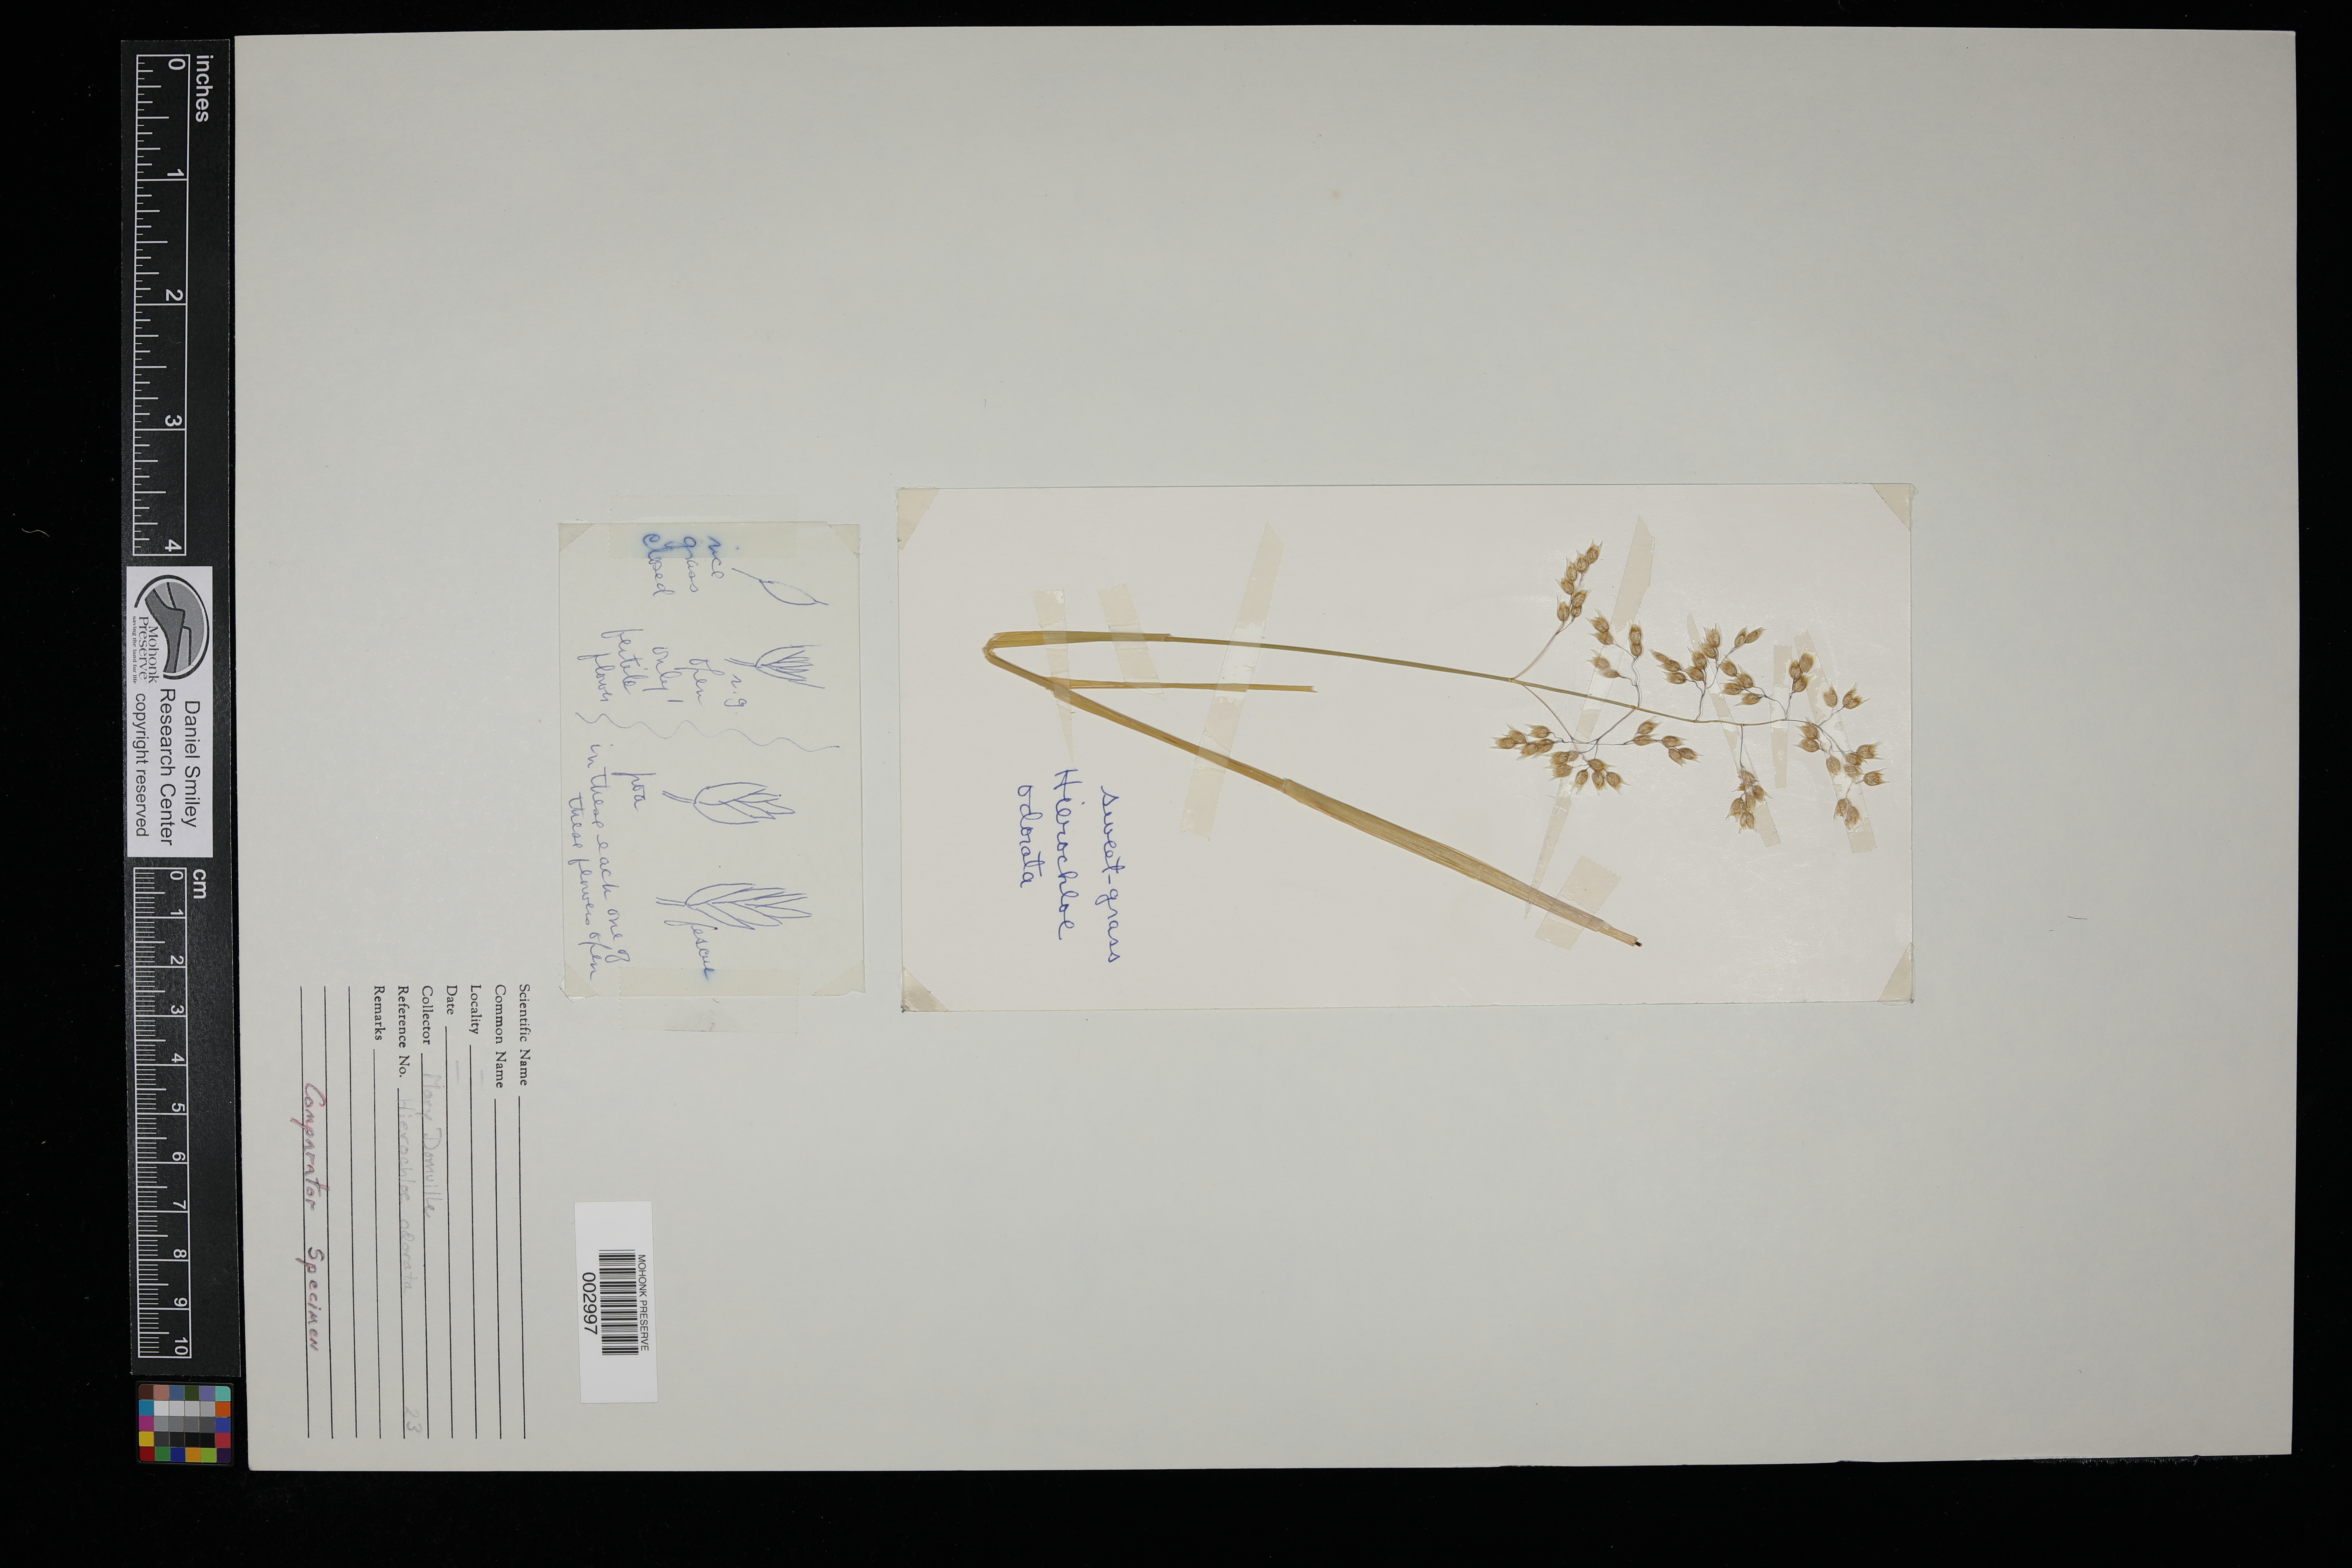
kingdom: Plantae
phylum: Tracheophyta
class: Liliopsida
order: Poales
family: Poaceae
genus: Anthoxanthum
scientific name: Anthoxanthum nitens
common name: Holy grass
